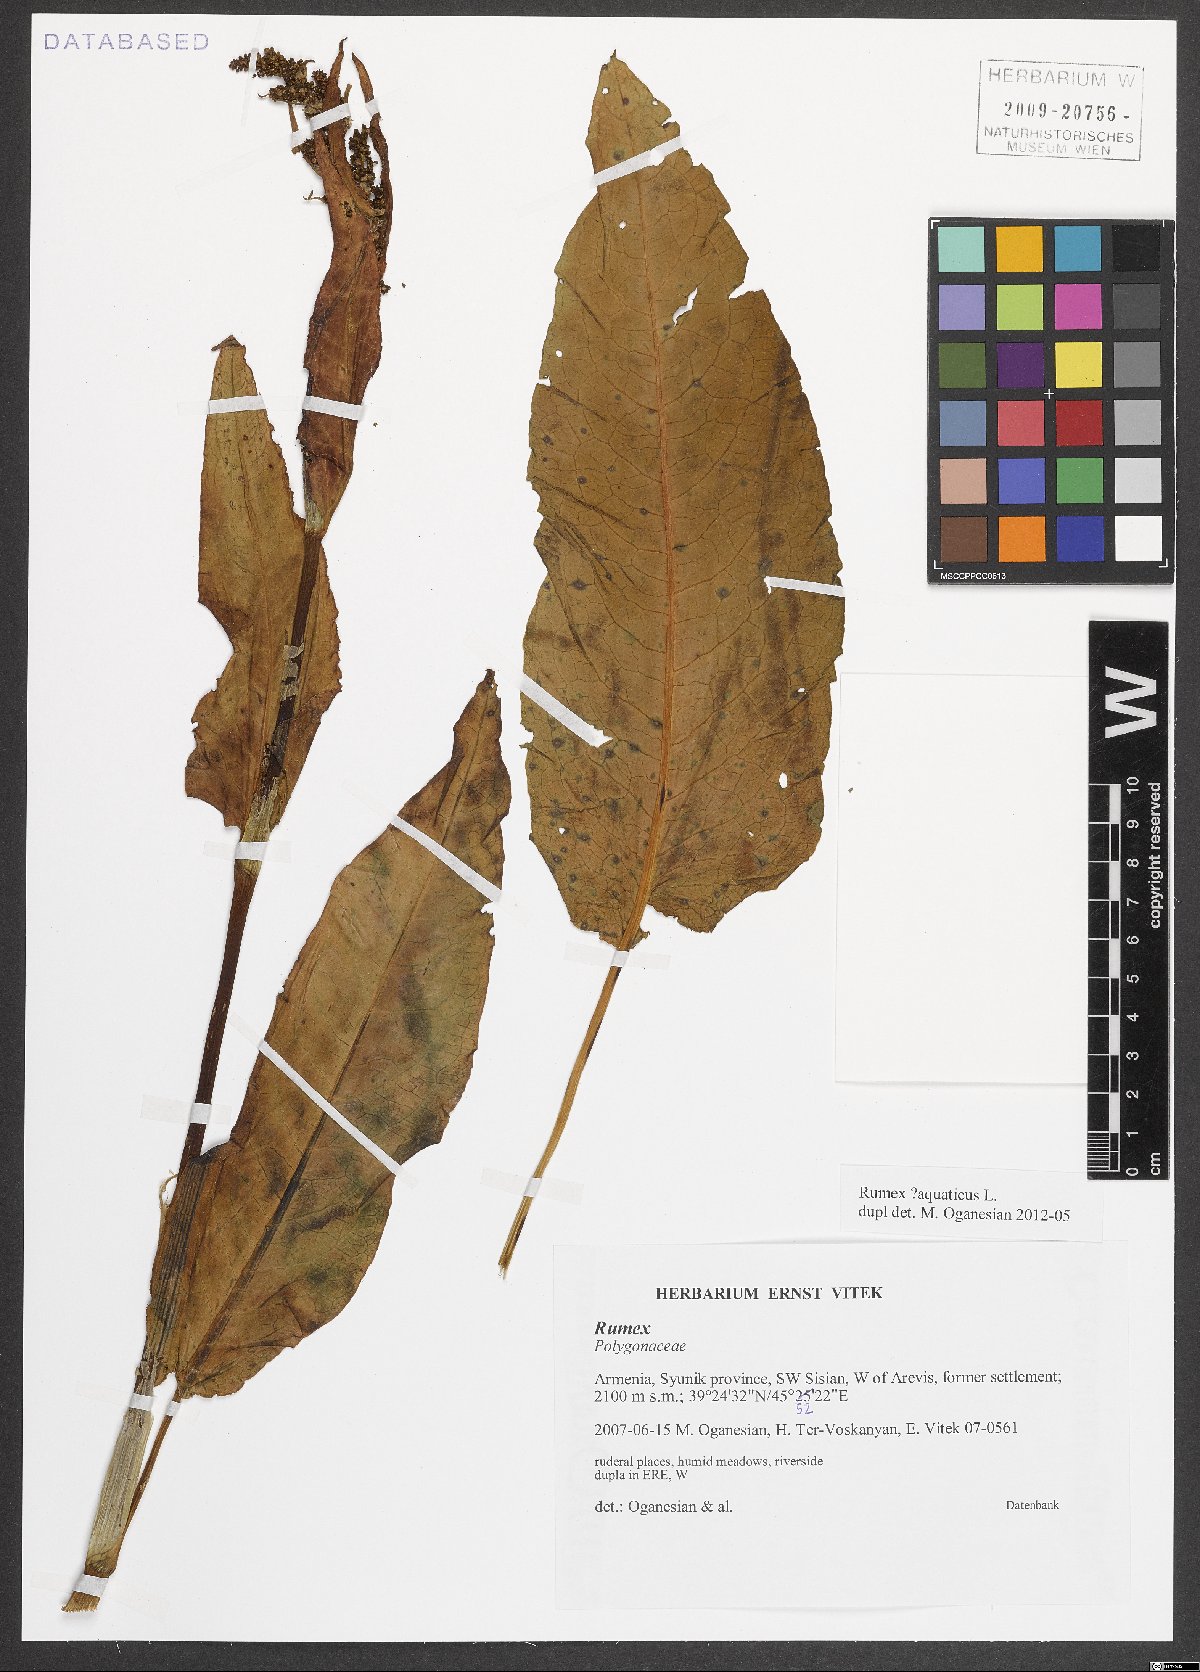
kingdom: Plantae
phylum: Tracheophyta
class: Magnoliopsida
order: Caryophyllales
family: Polygonaceae
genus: Rumex
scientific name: Rumex aquaticus
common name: Scottish dock
